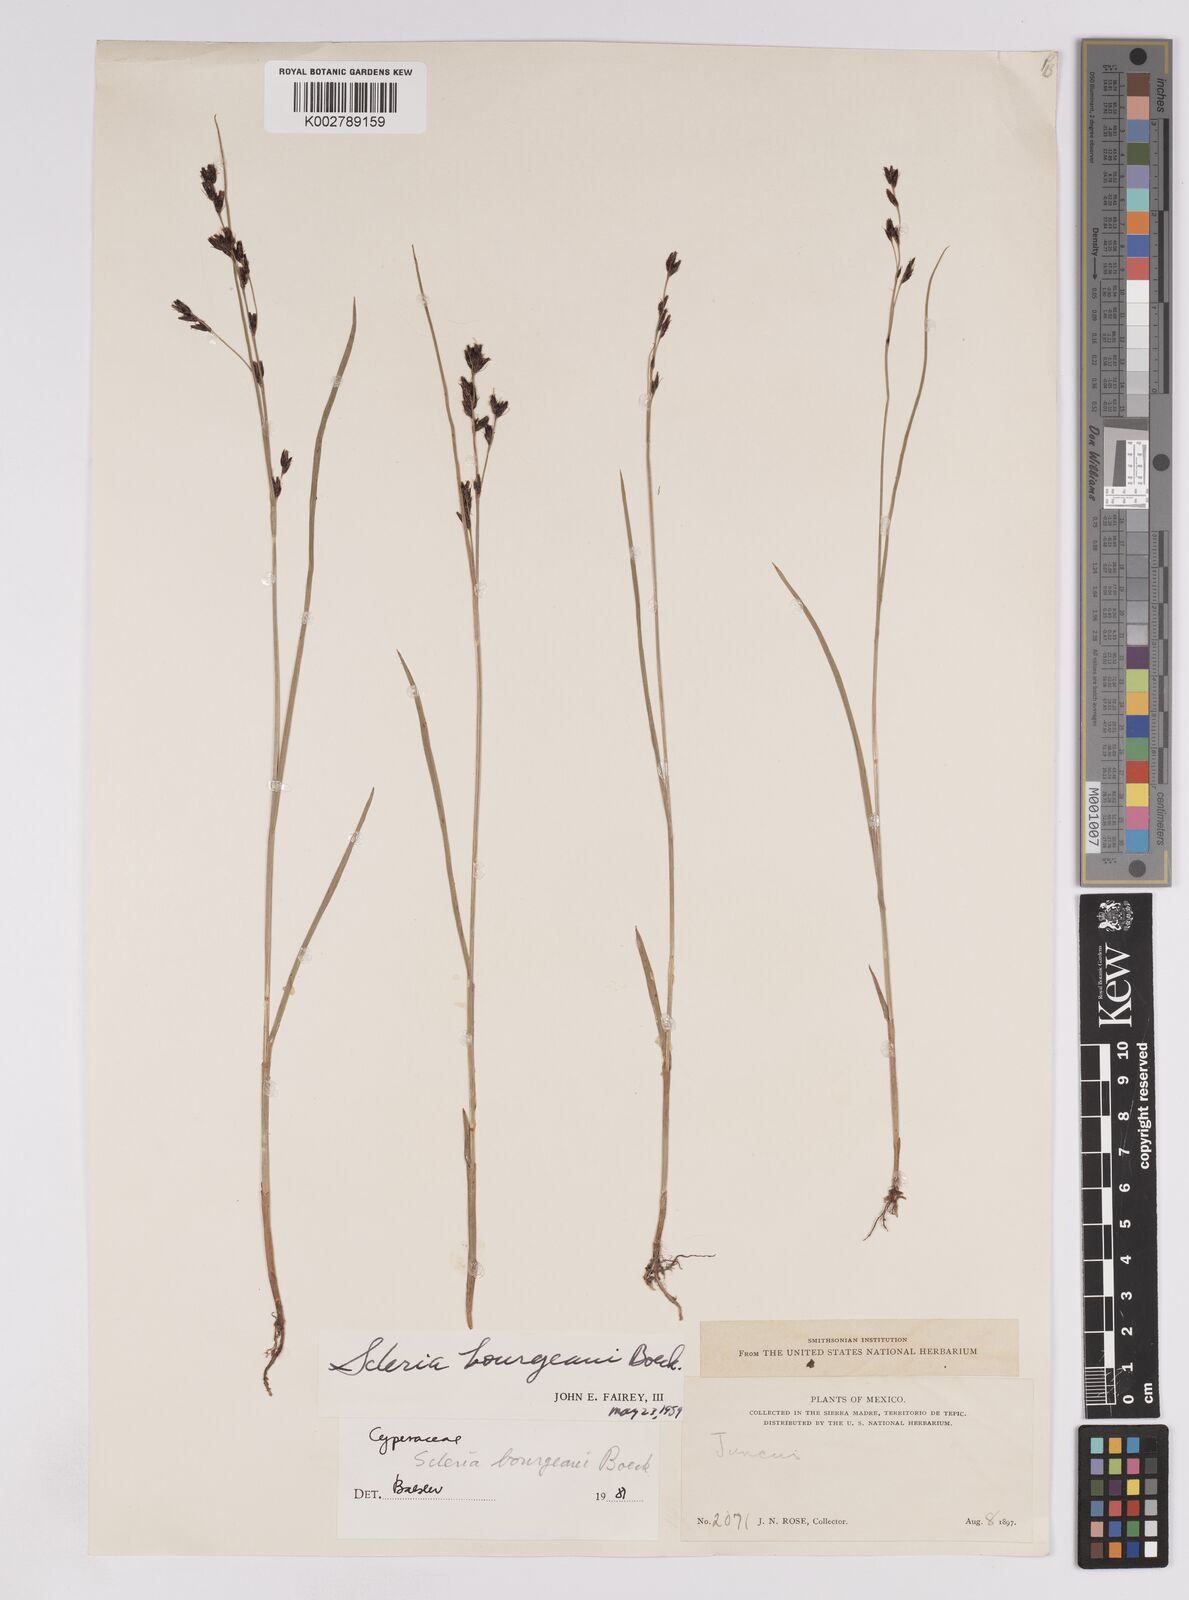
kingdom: Plantae
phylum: Tracheophyta
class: Liliopsida
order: Poales
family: Cyperaceae
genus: Scleria
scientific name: Scleria bourgeaui
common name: Bourgeau's nutrush
